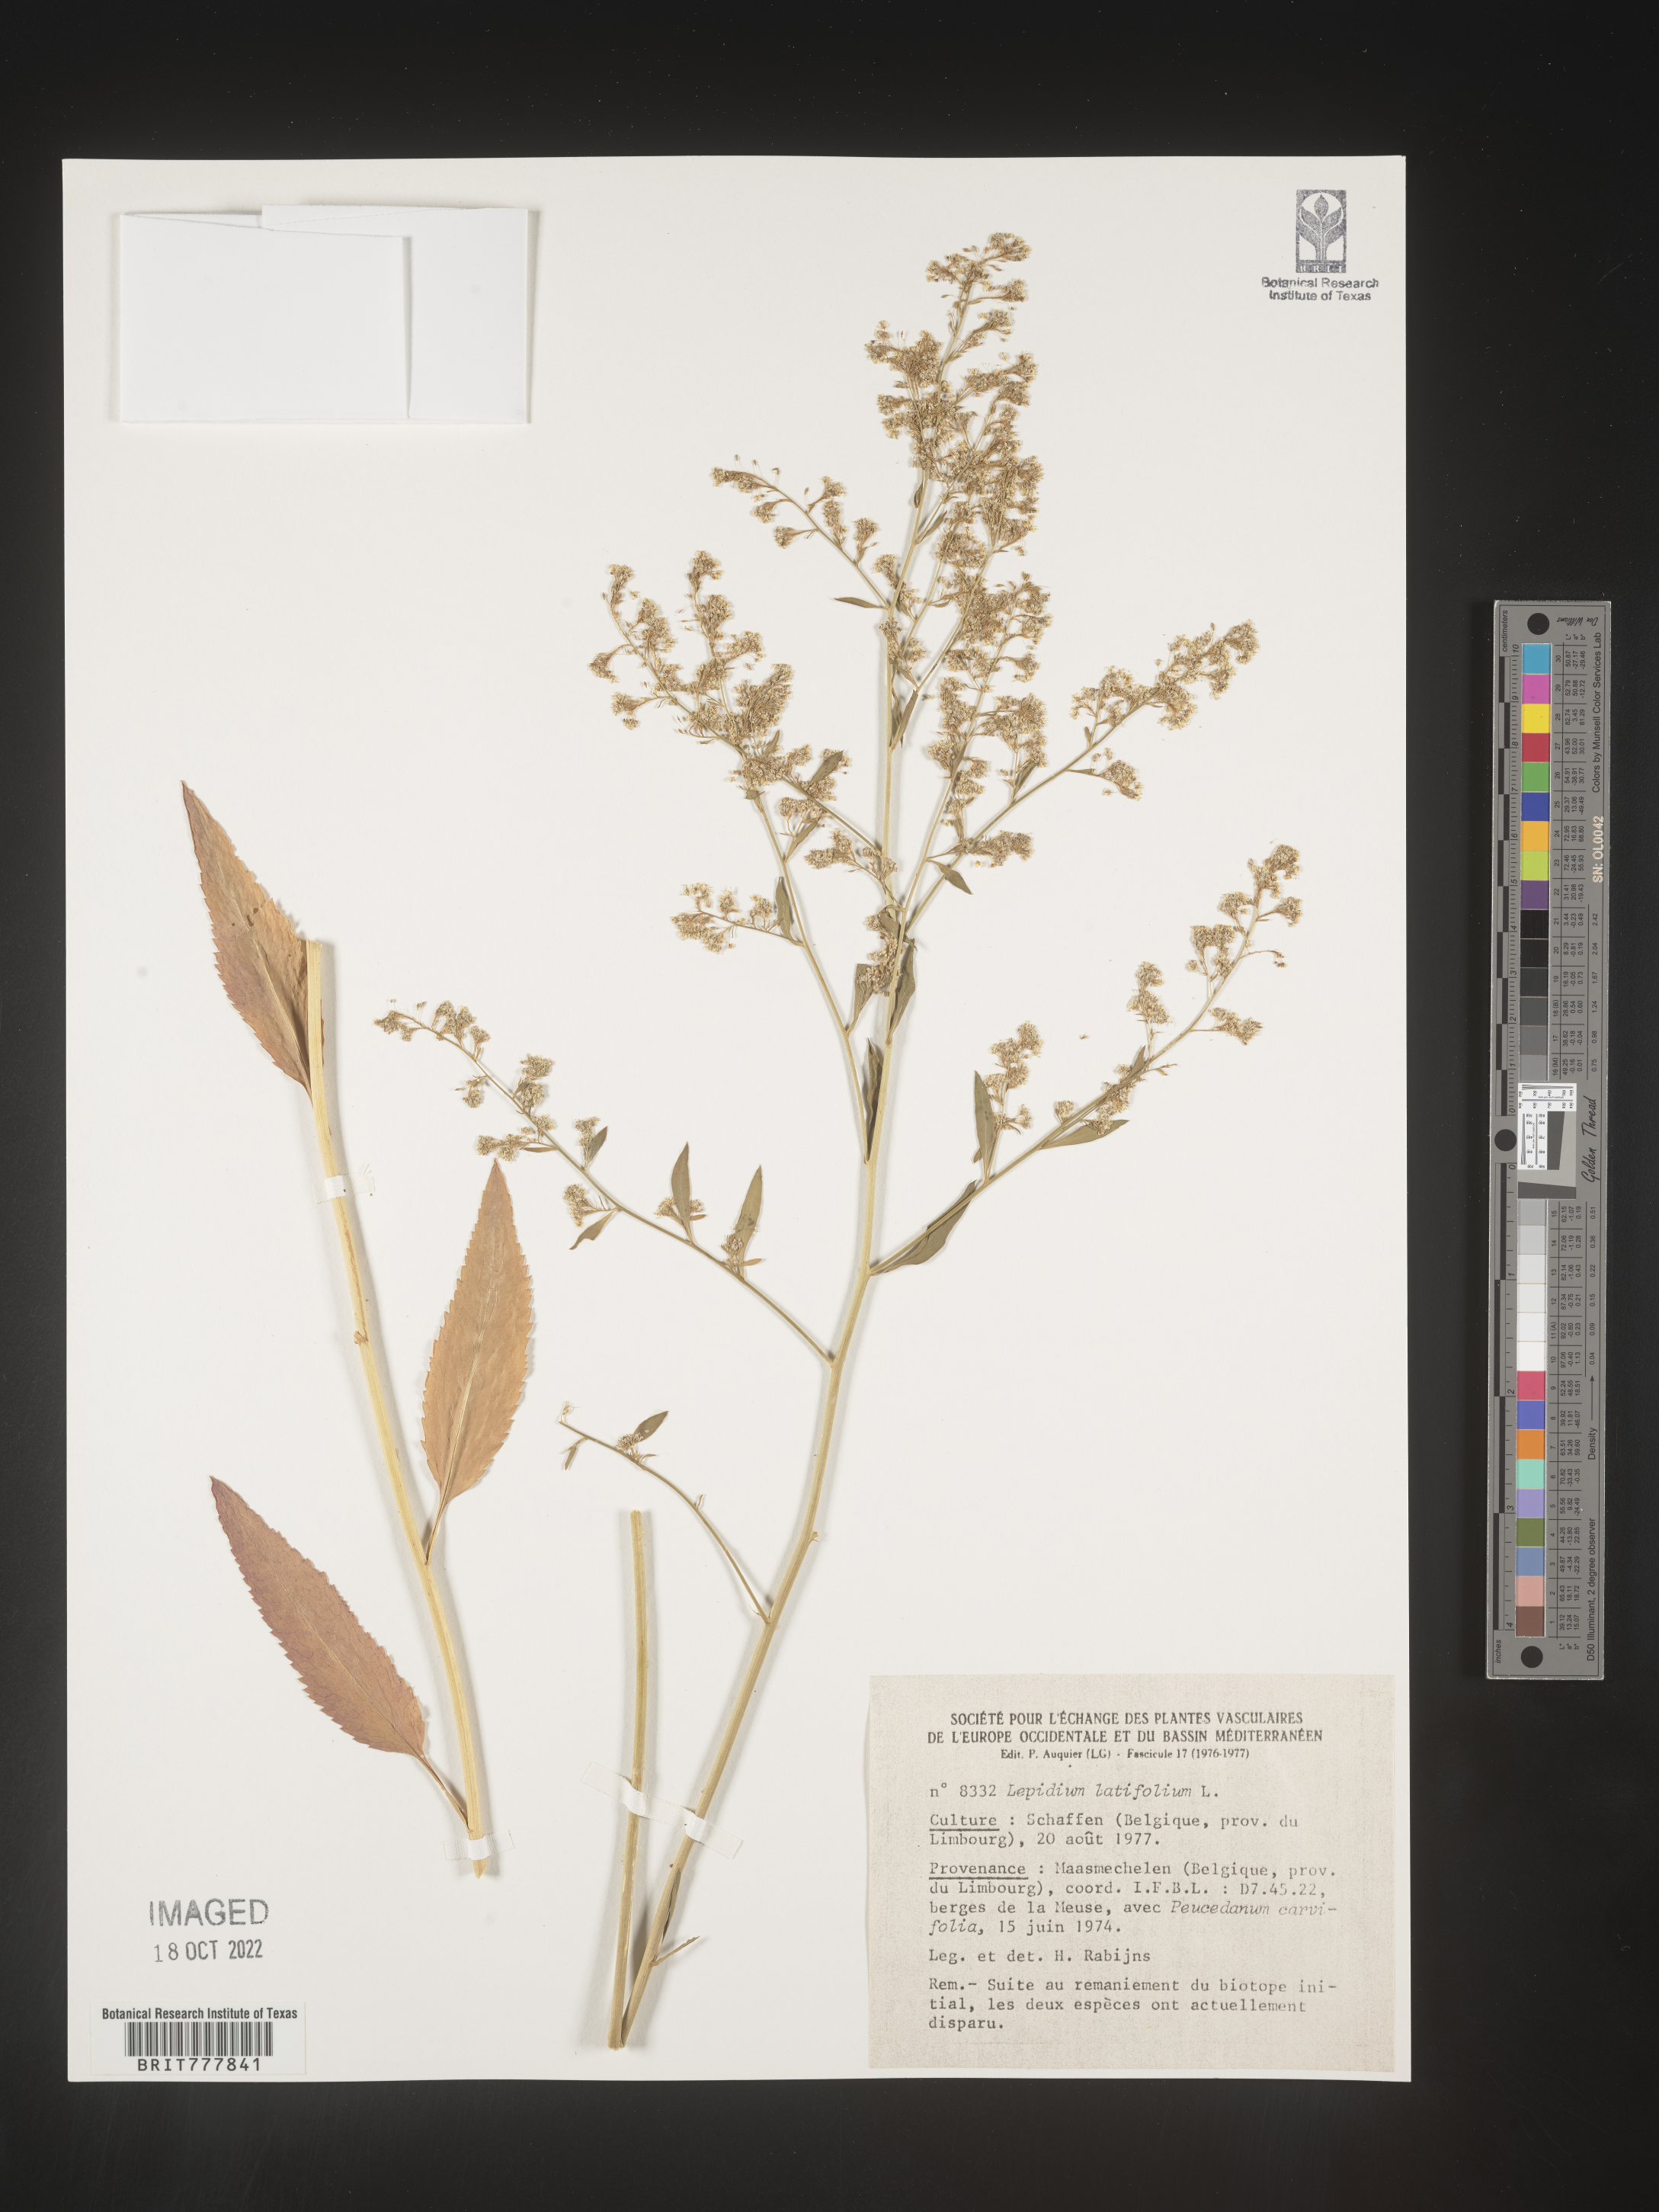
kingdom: Plantae
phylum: Tracheophyta
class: Magnoliopsida
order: Brassicales
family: Brassicaceae
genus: Lepidium
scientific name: Lepidium
